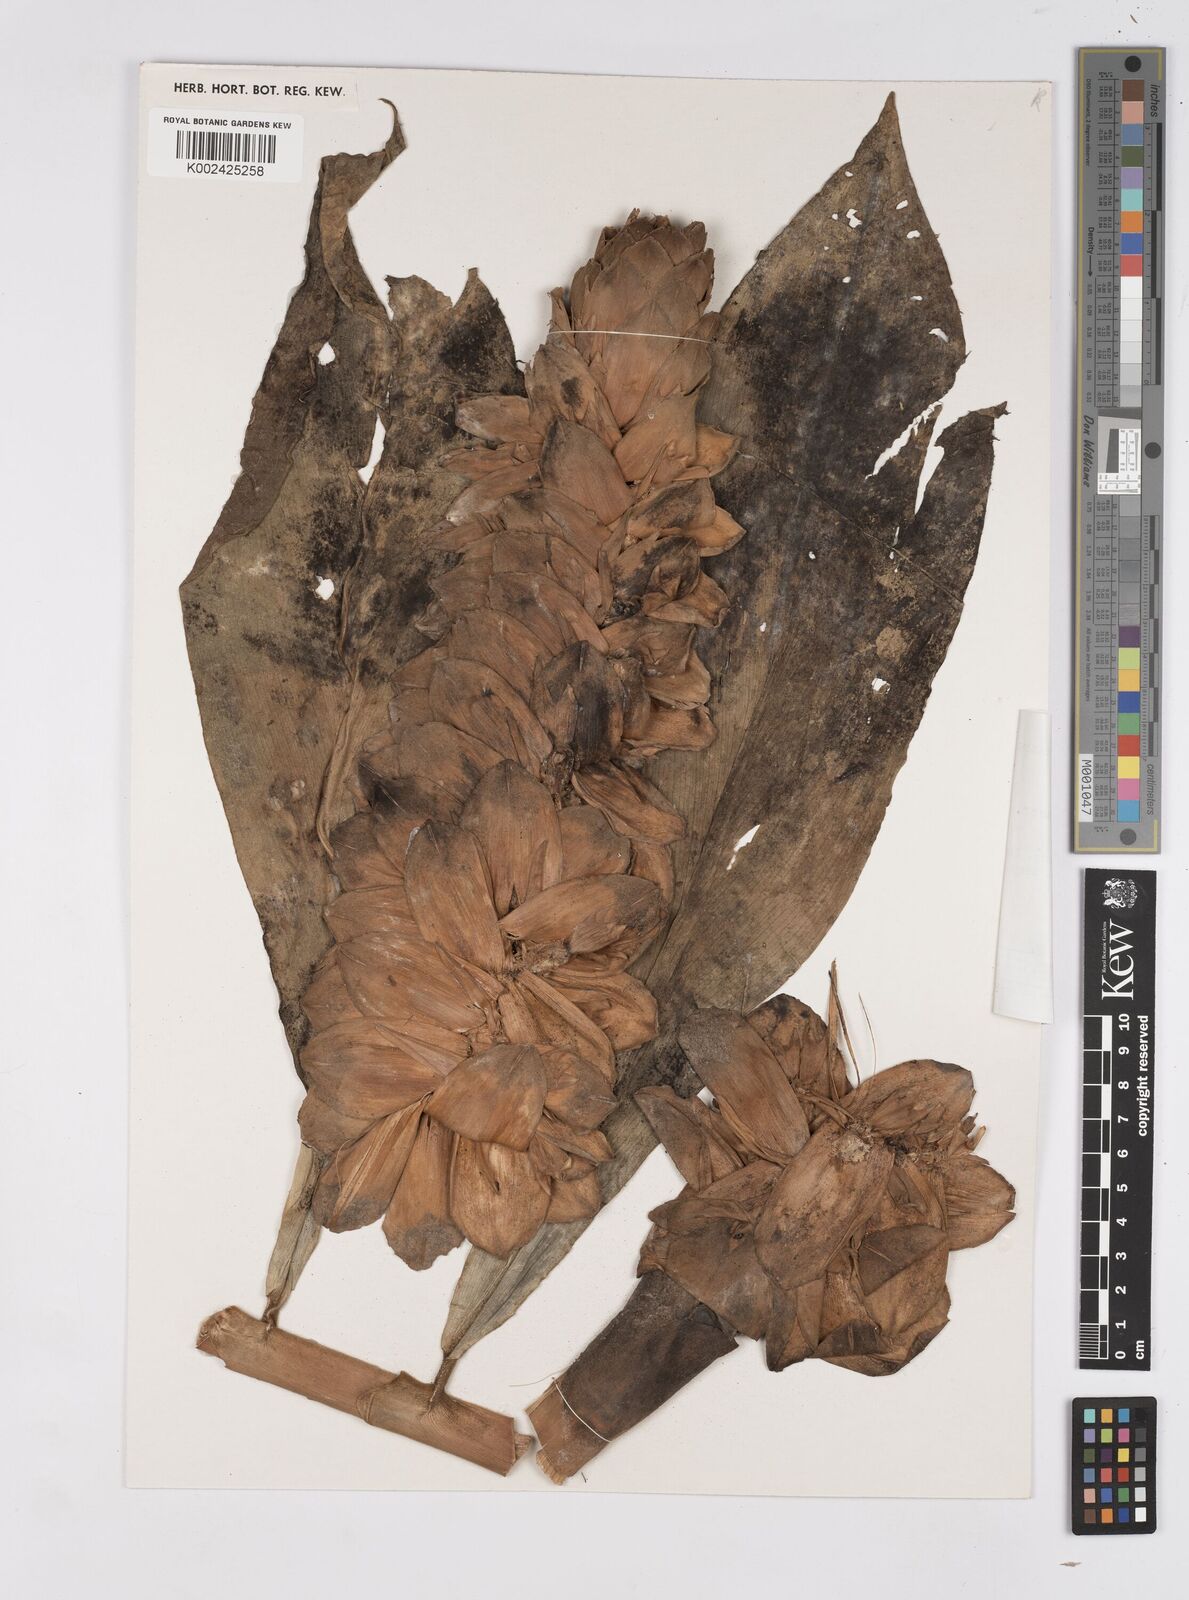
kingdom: Plantae
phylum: Tracheophyta
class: Liliopsida
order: Zingiberales
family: Costaceae
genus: Costus
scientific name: Costus amazonicus
